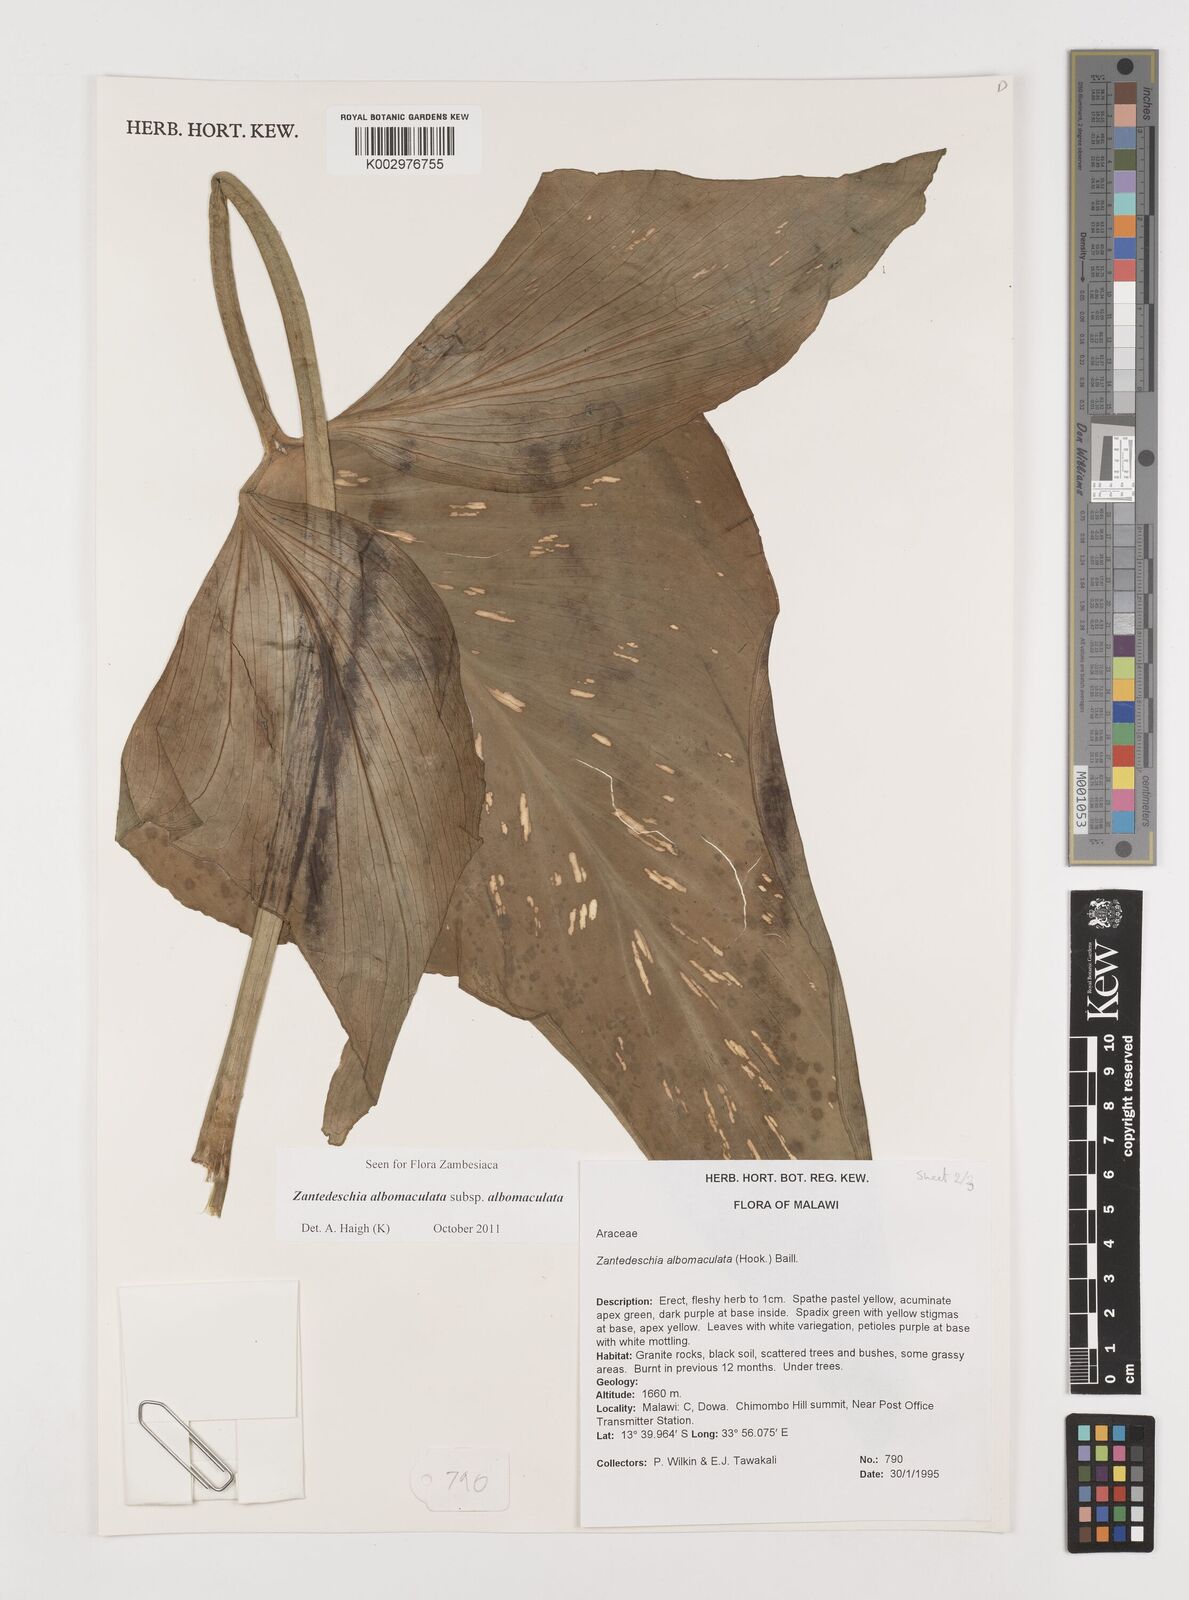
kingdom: Plantae
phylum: Tracheophyta
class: Liliopsida
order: Alismatales
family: Araceae
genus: Zantedeschia
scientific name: Zantedeschia albomaculata
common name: Spotted calla lily
